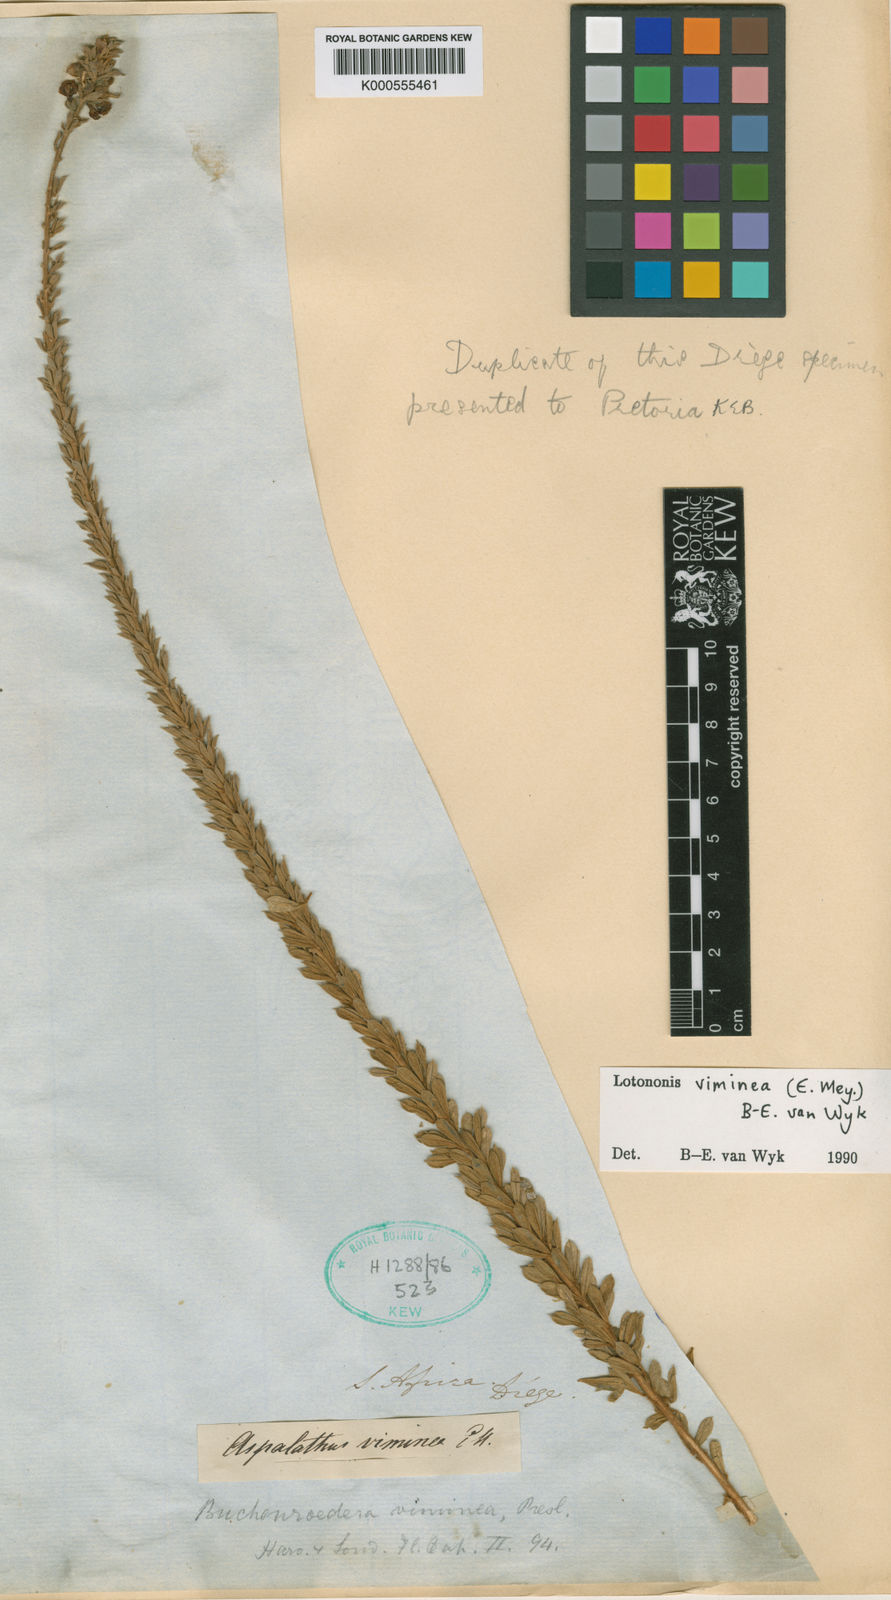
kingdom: Plantae
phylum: Tracheophyta
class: Magnoliopsida
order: Fabales
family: Fabaceae
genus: Lotononis
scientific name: Lotononis viminea
